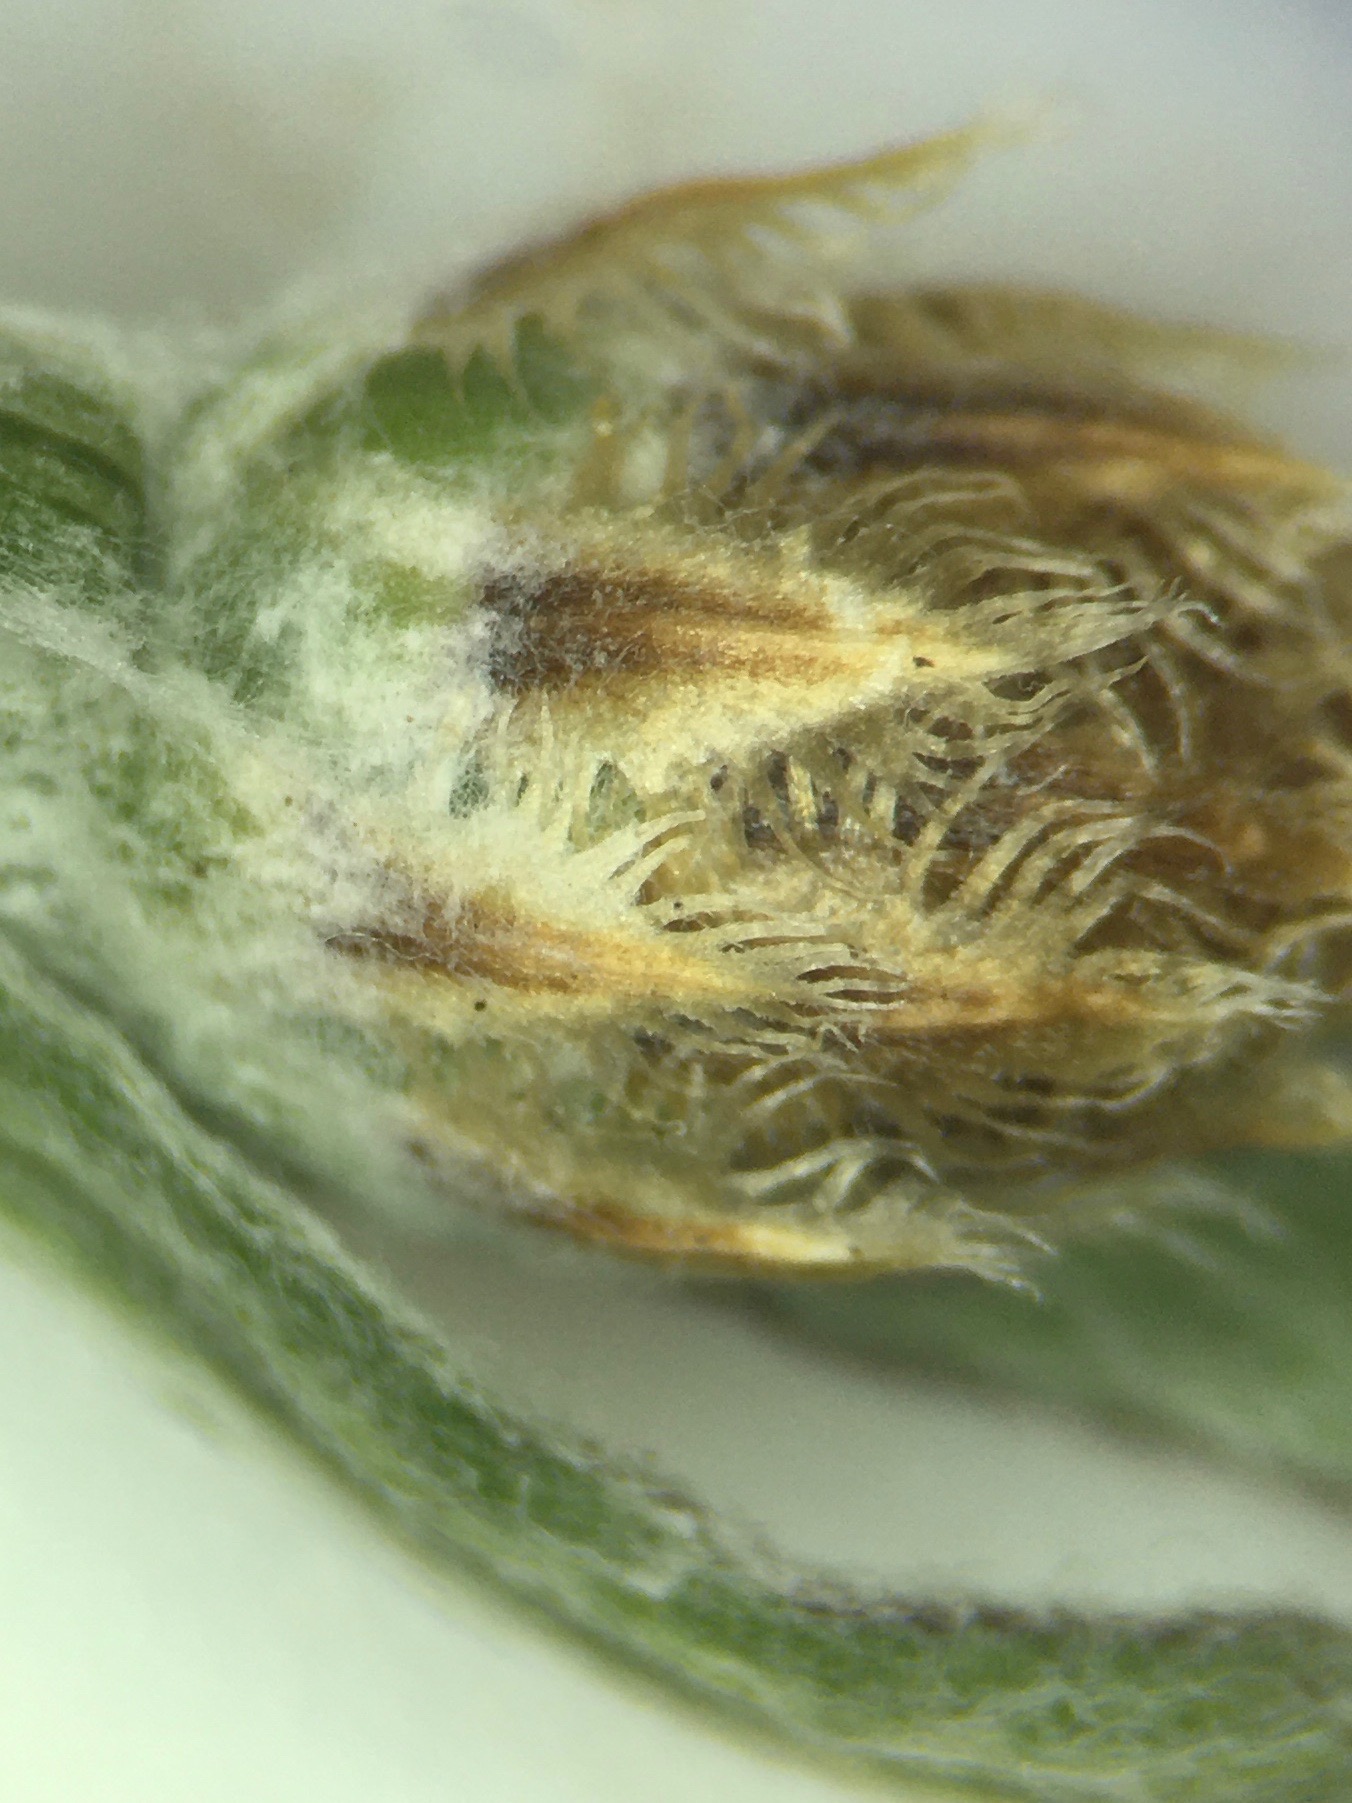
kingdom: Plantae
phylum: Tracheophyta
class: Magnoliopsida
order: Asterales
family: Asteraceae
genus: Centaurea
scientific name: Centaurea debeauxii
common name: Lundknopurt
